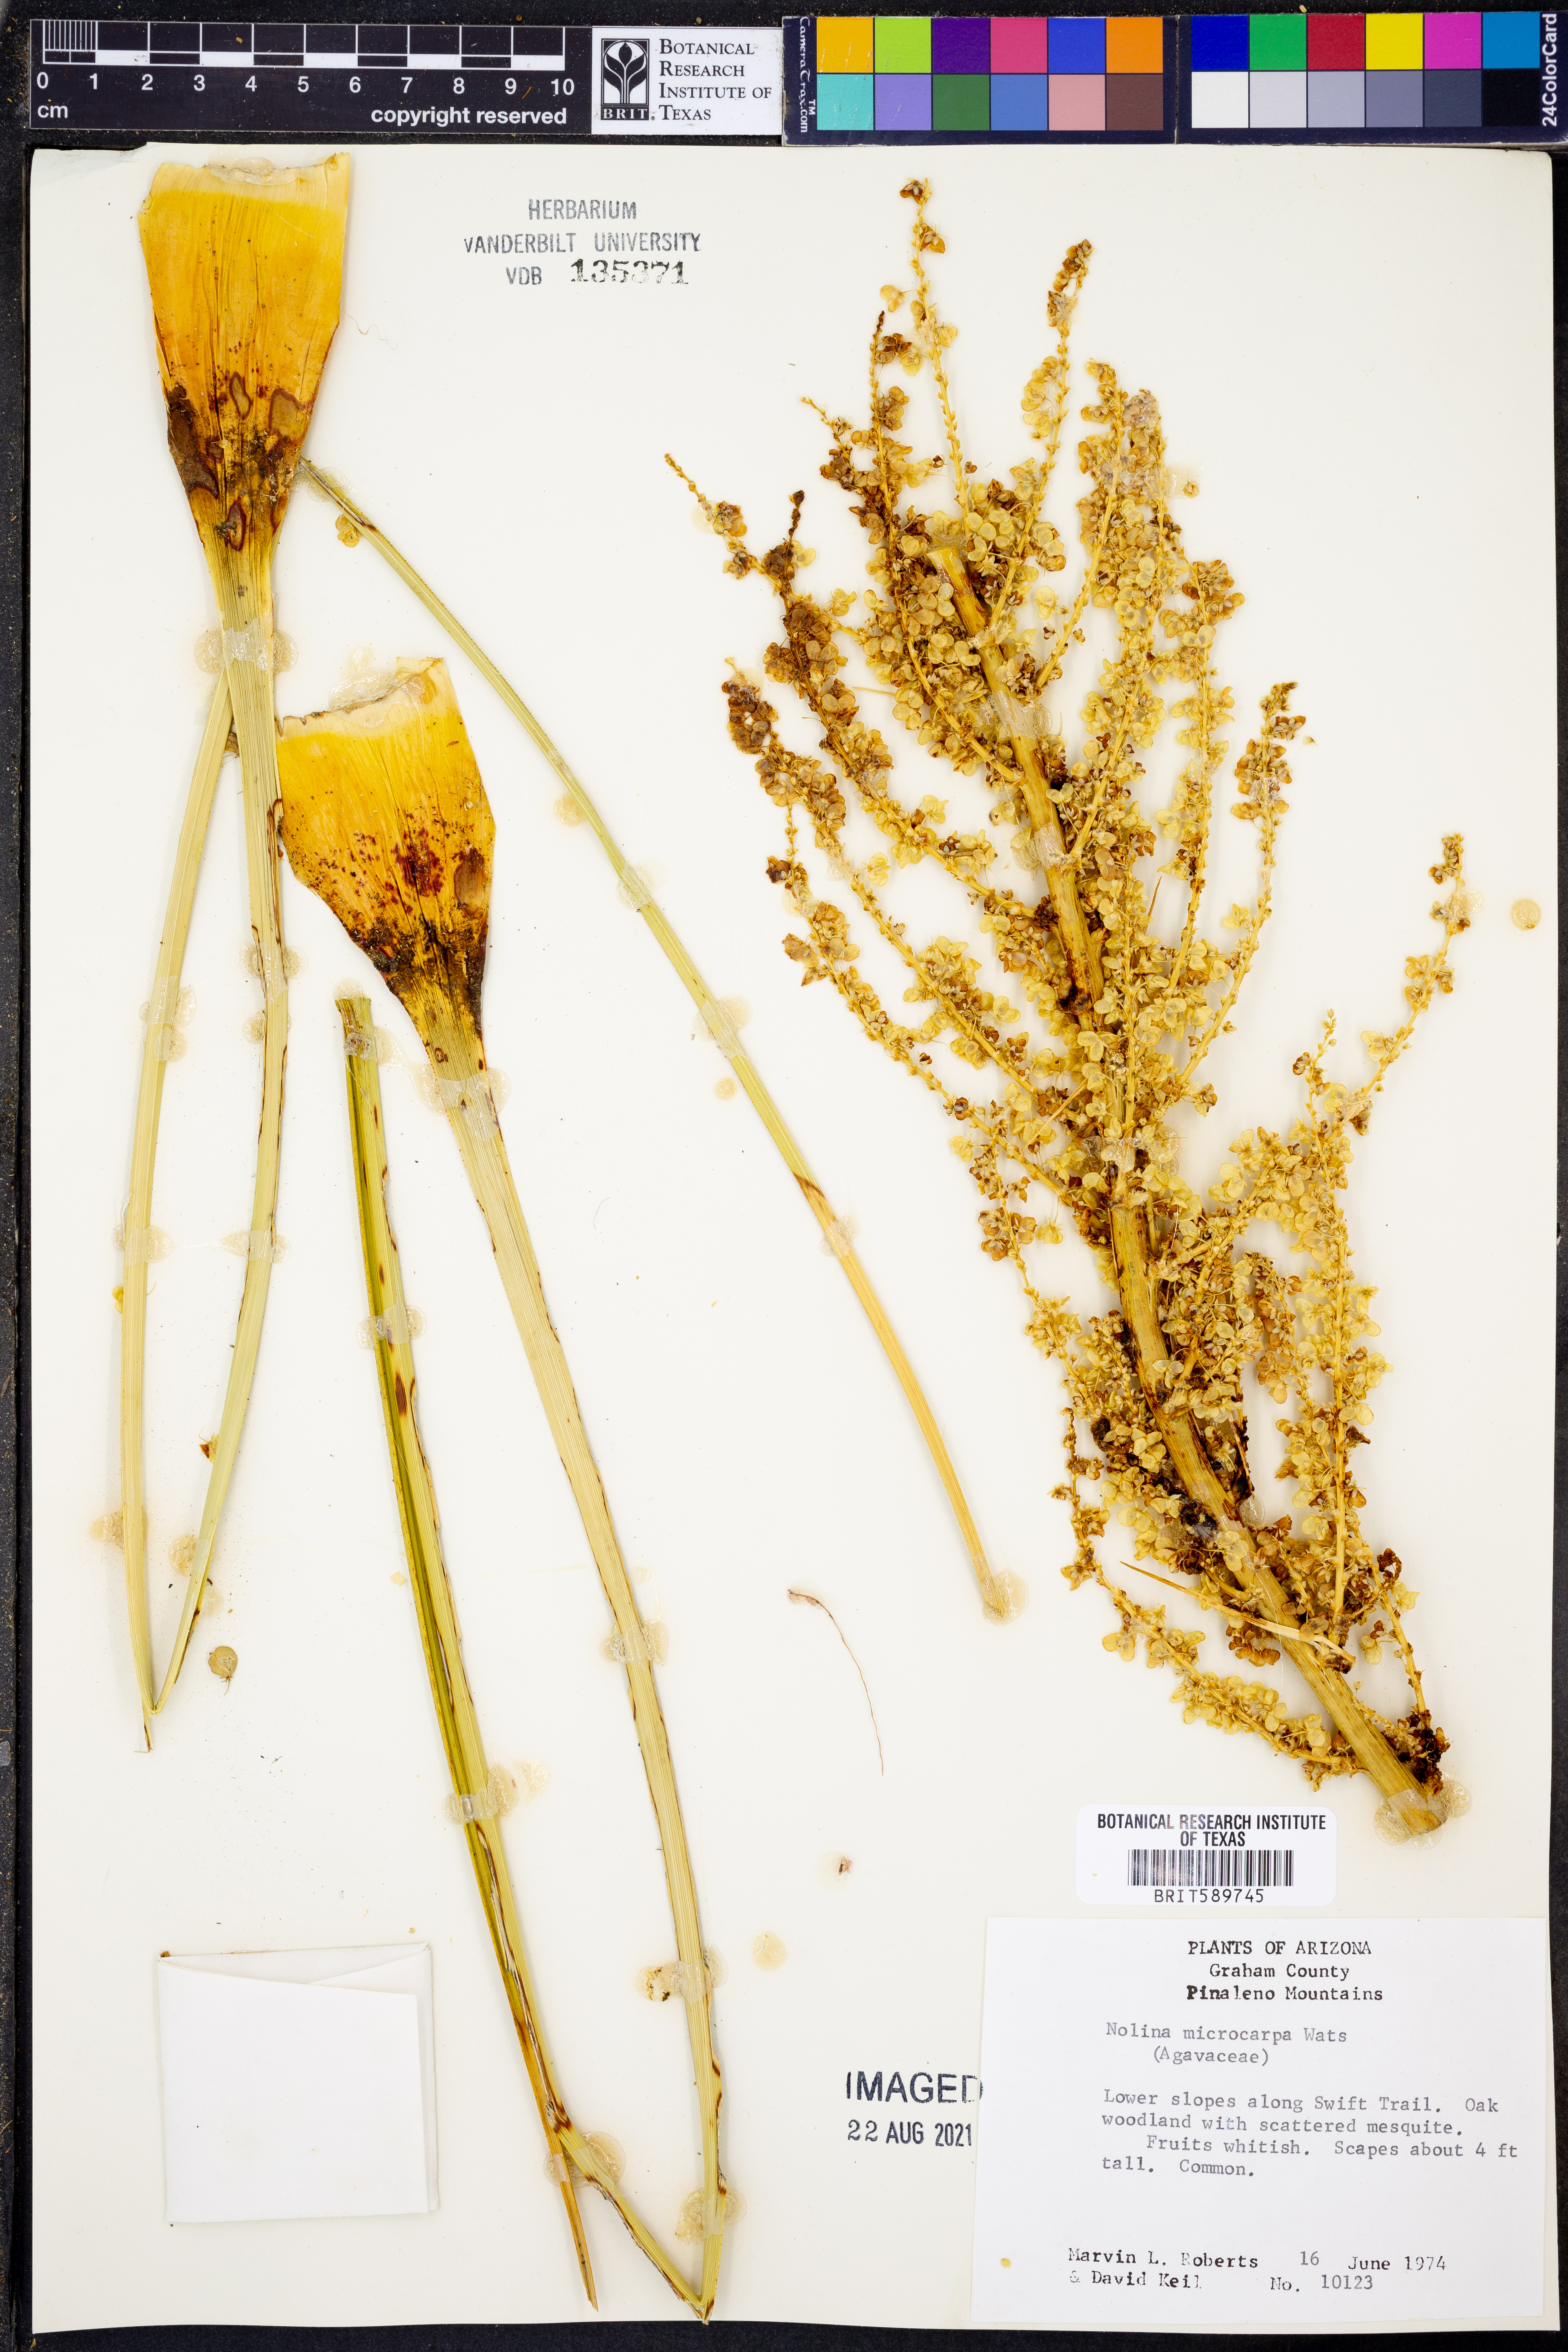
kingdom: Plantae
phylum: Tracheophyta
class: Liliopsida
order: Asparagales
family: Asparagaceae
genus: Nolina
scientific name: Nolina microcarpa
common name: Bear-grass
